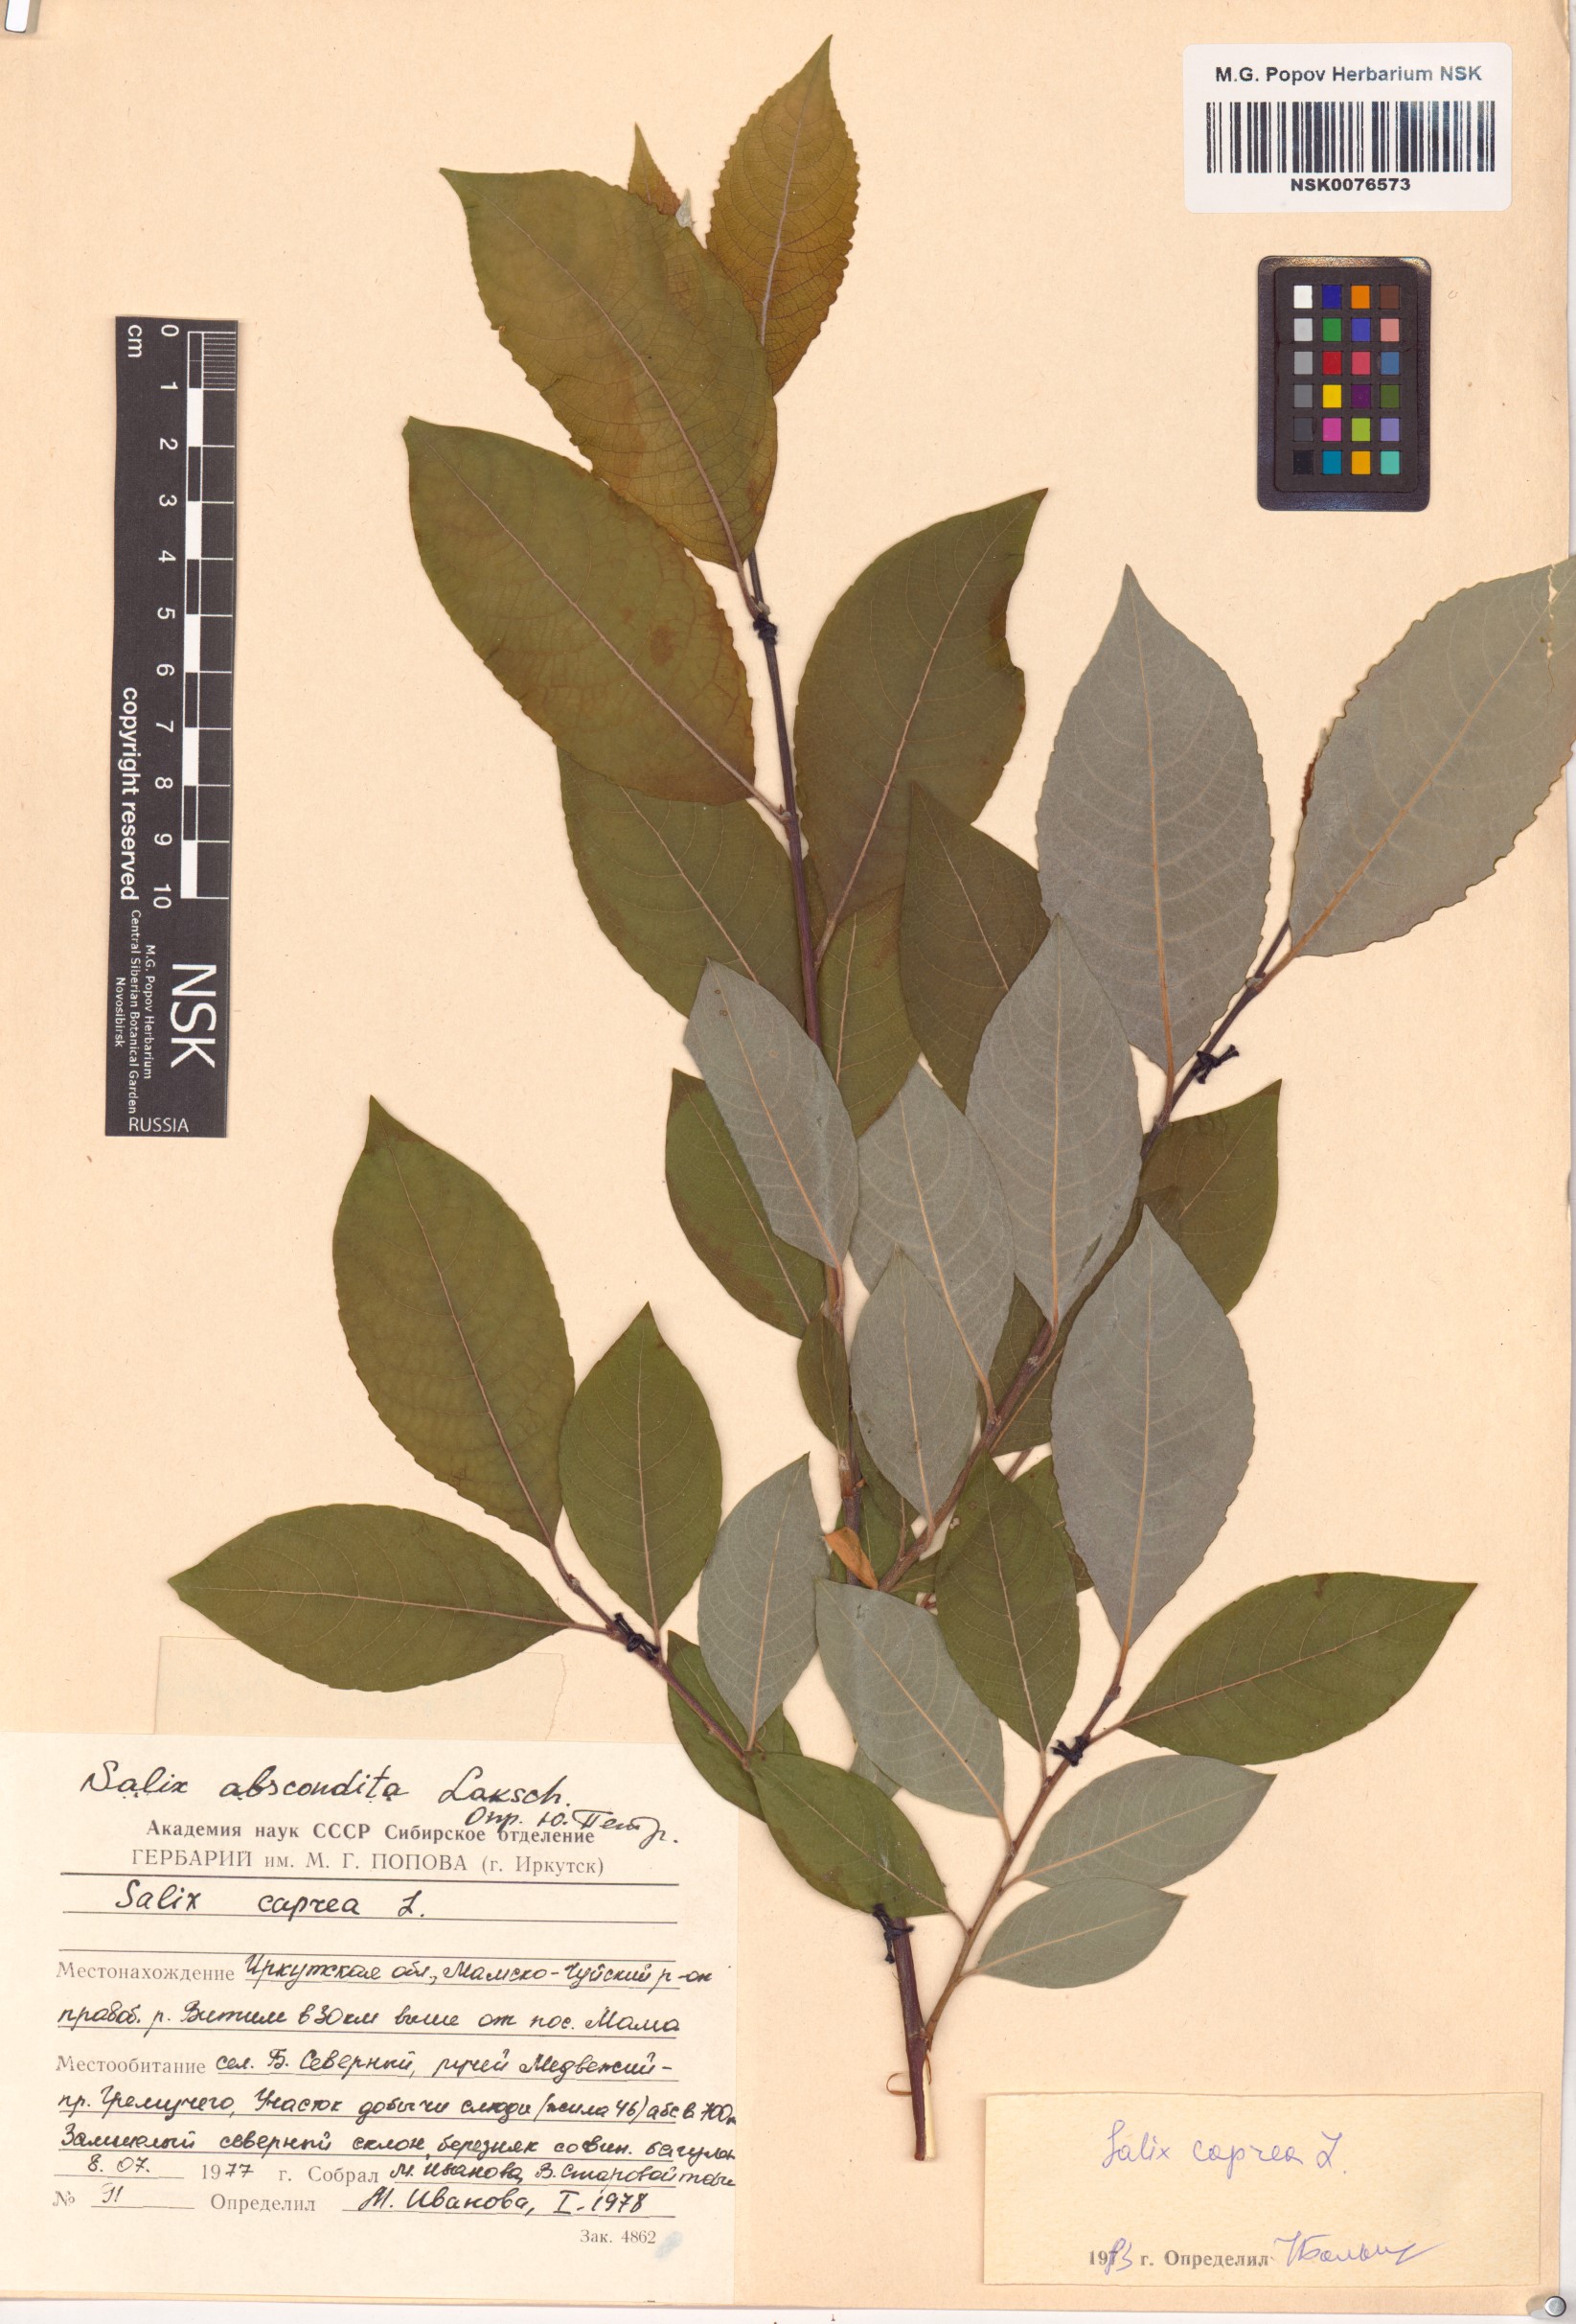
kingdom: Plantae
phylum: Tracheophyta
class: Magnoliopsida
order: Malpighiales
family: Salicaceae
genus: Salix
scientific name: Salix caprea
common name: Goat willow
